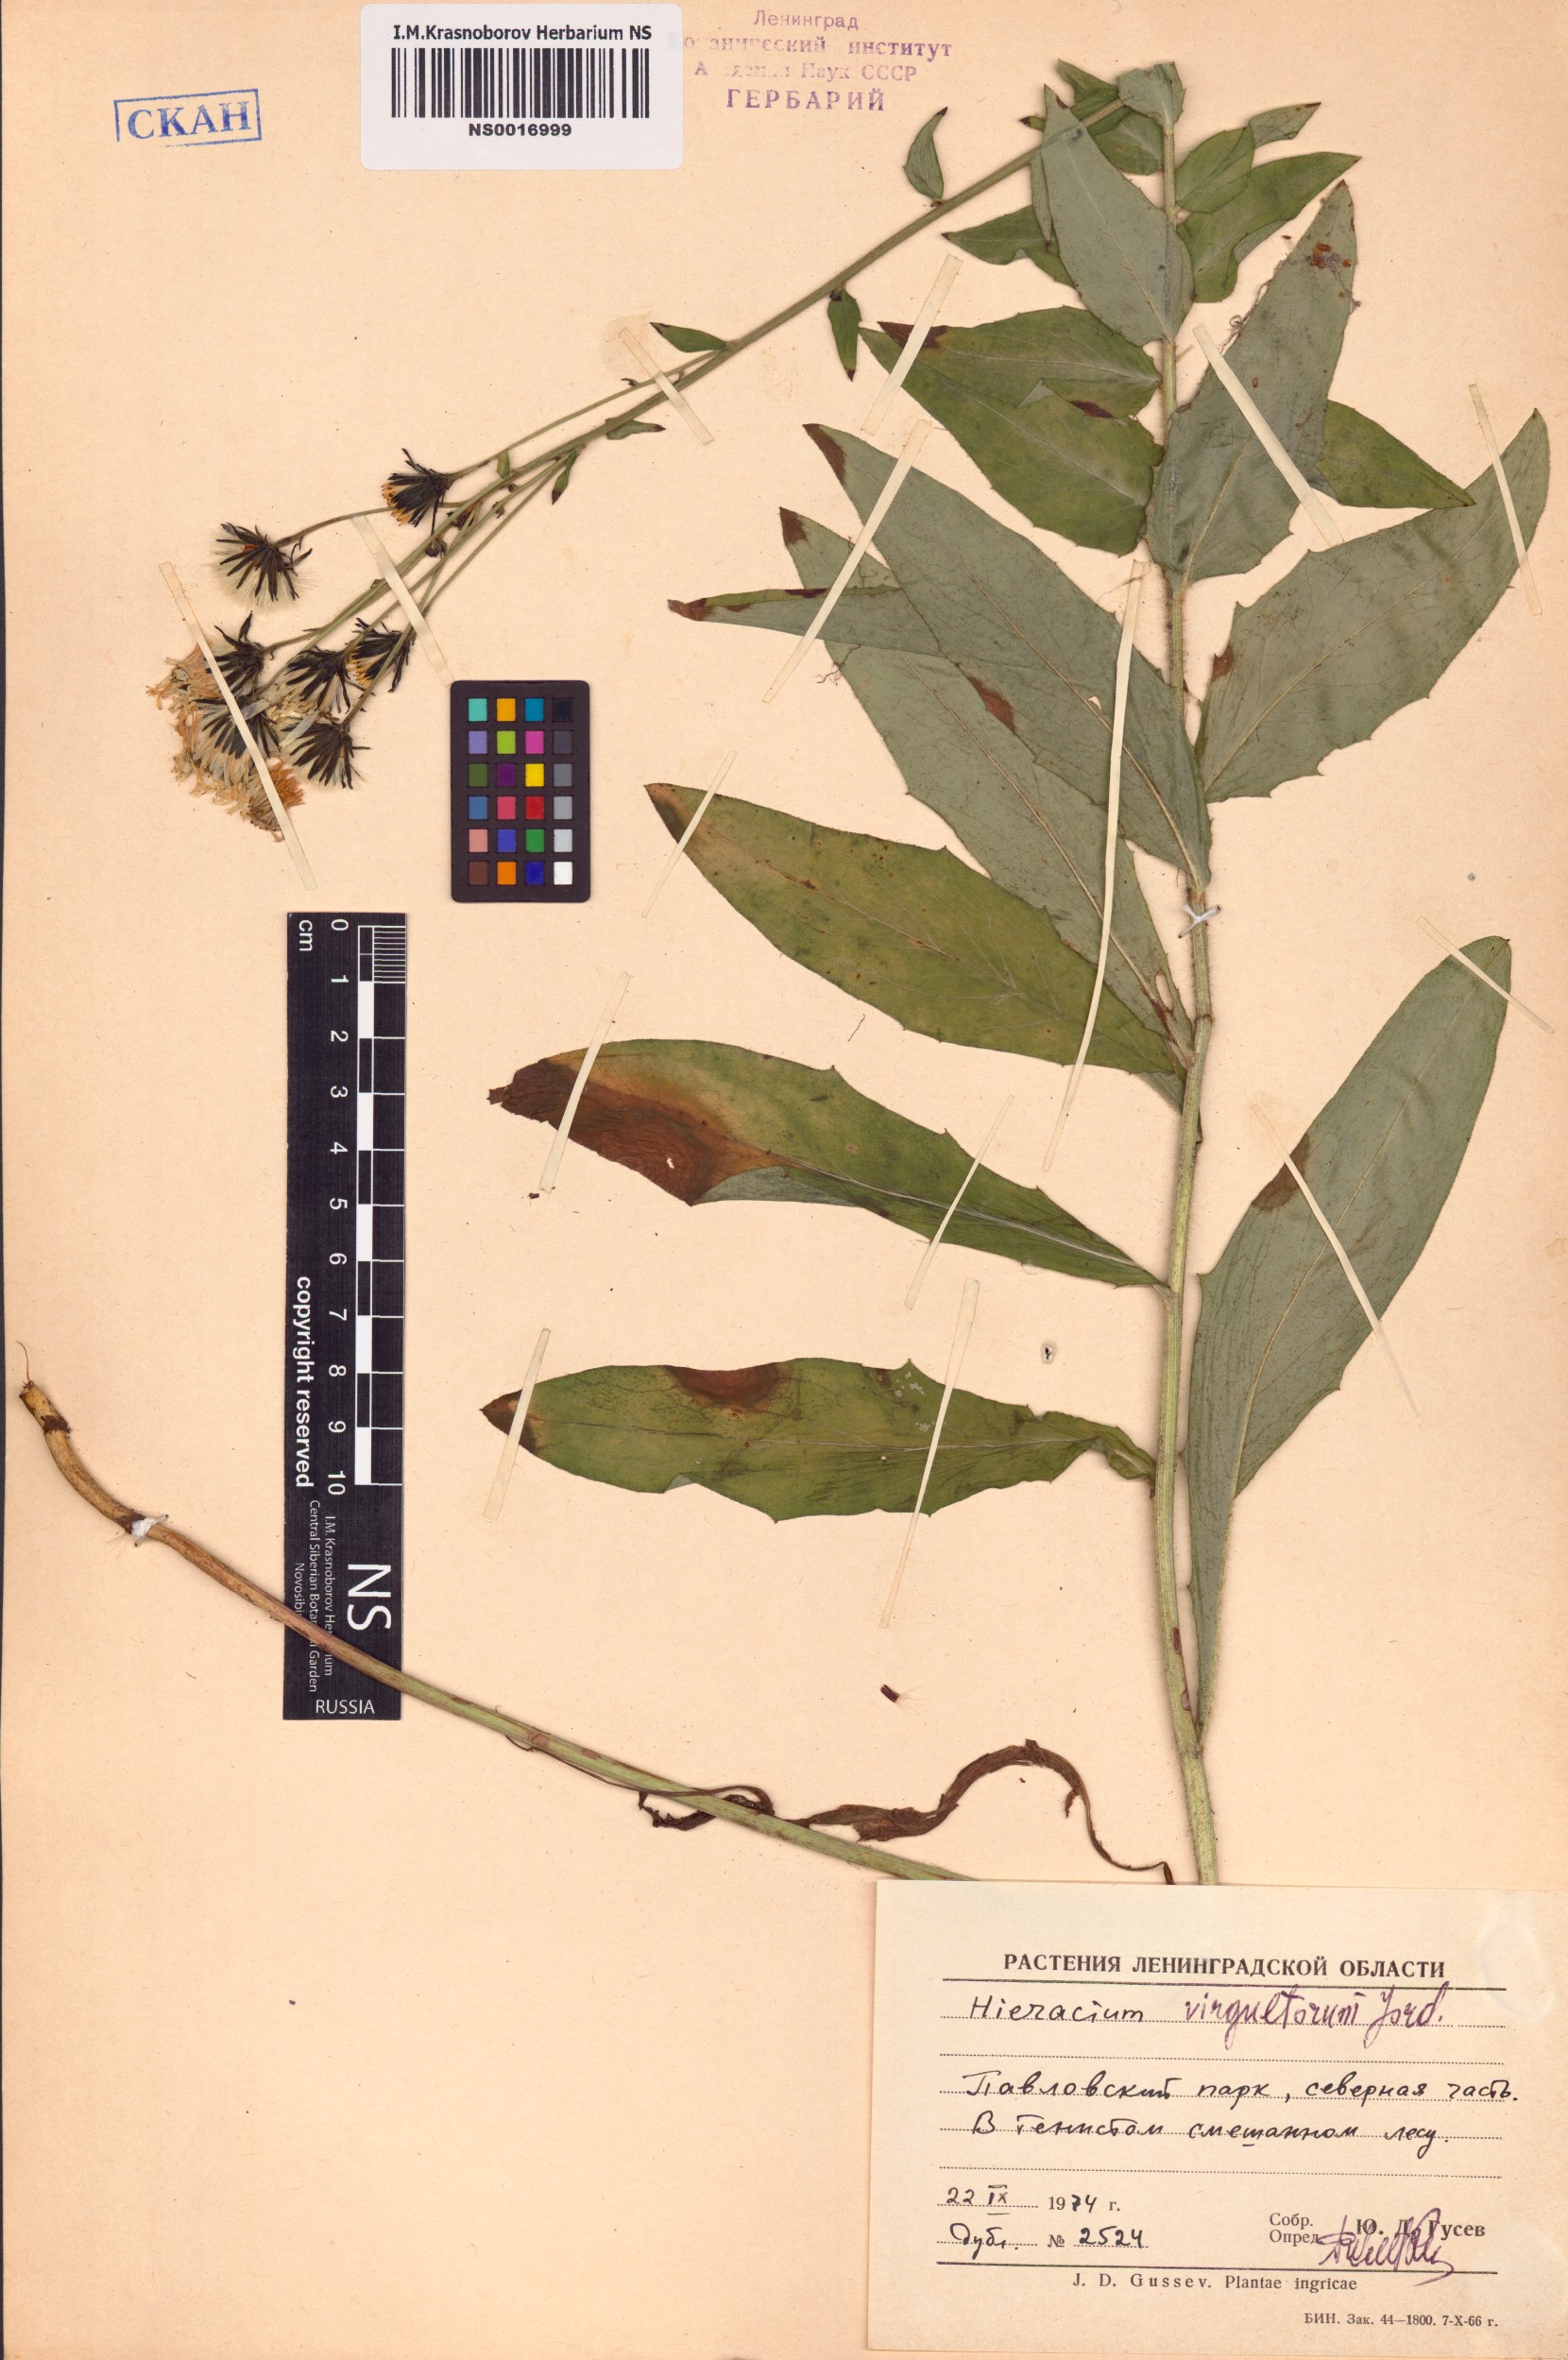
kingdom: Plantae
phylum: Tracheophyta
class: Magnoliopsida
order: Asterales
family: Asteraceae
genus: Hieracium
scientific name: Hieracium sabaudum
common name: New england hawkweed
